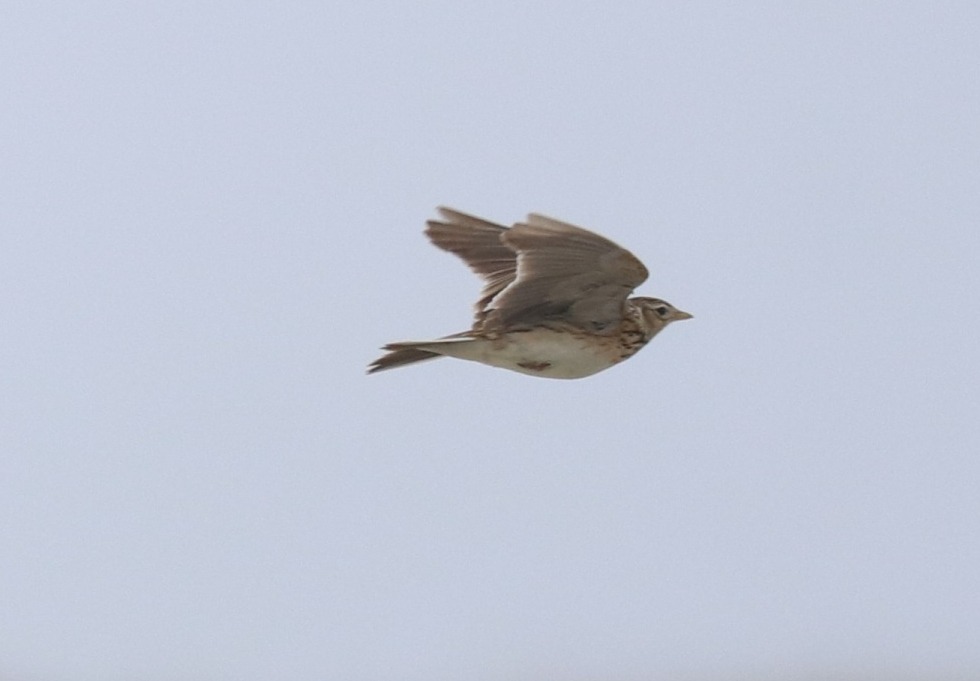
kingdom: Animalia
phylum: Chordata
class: Aves
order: Passeriformes
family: Alaudidae
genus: Alauda
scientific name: Alauda arvensis
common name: Sanglærke
